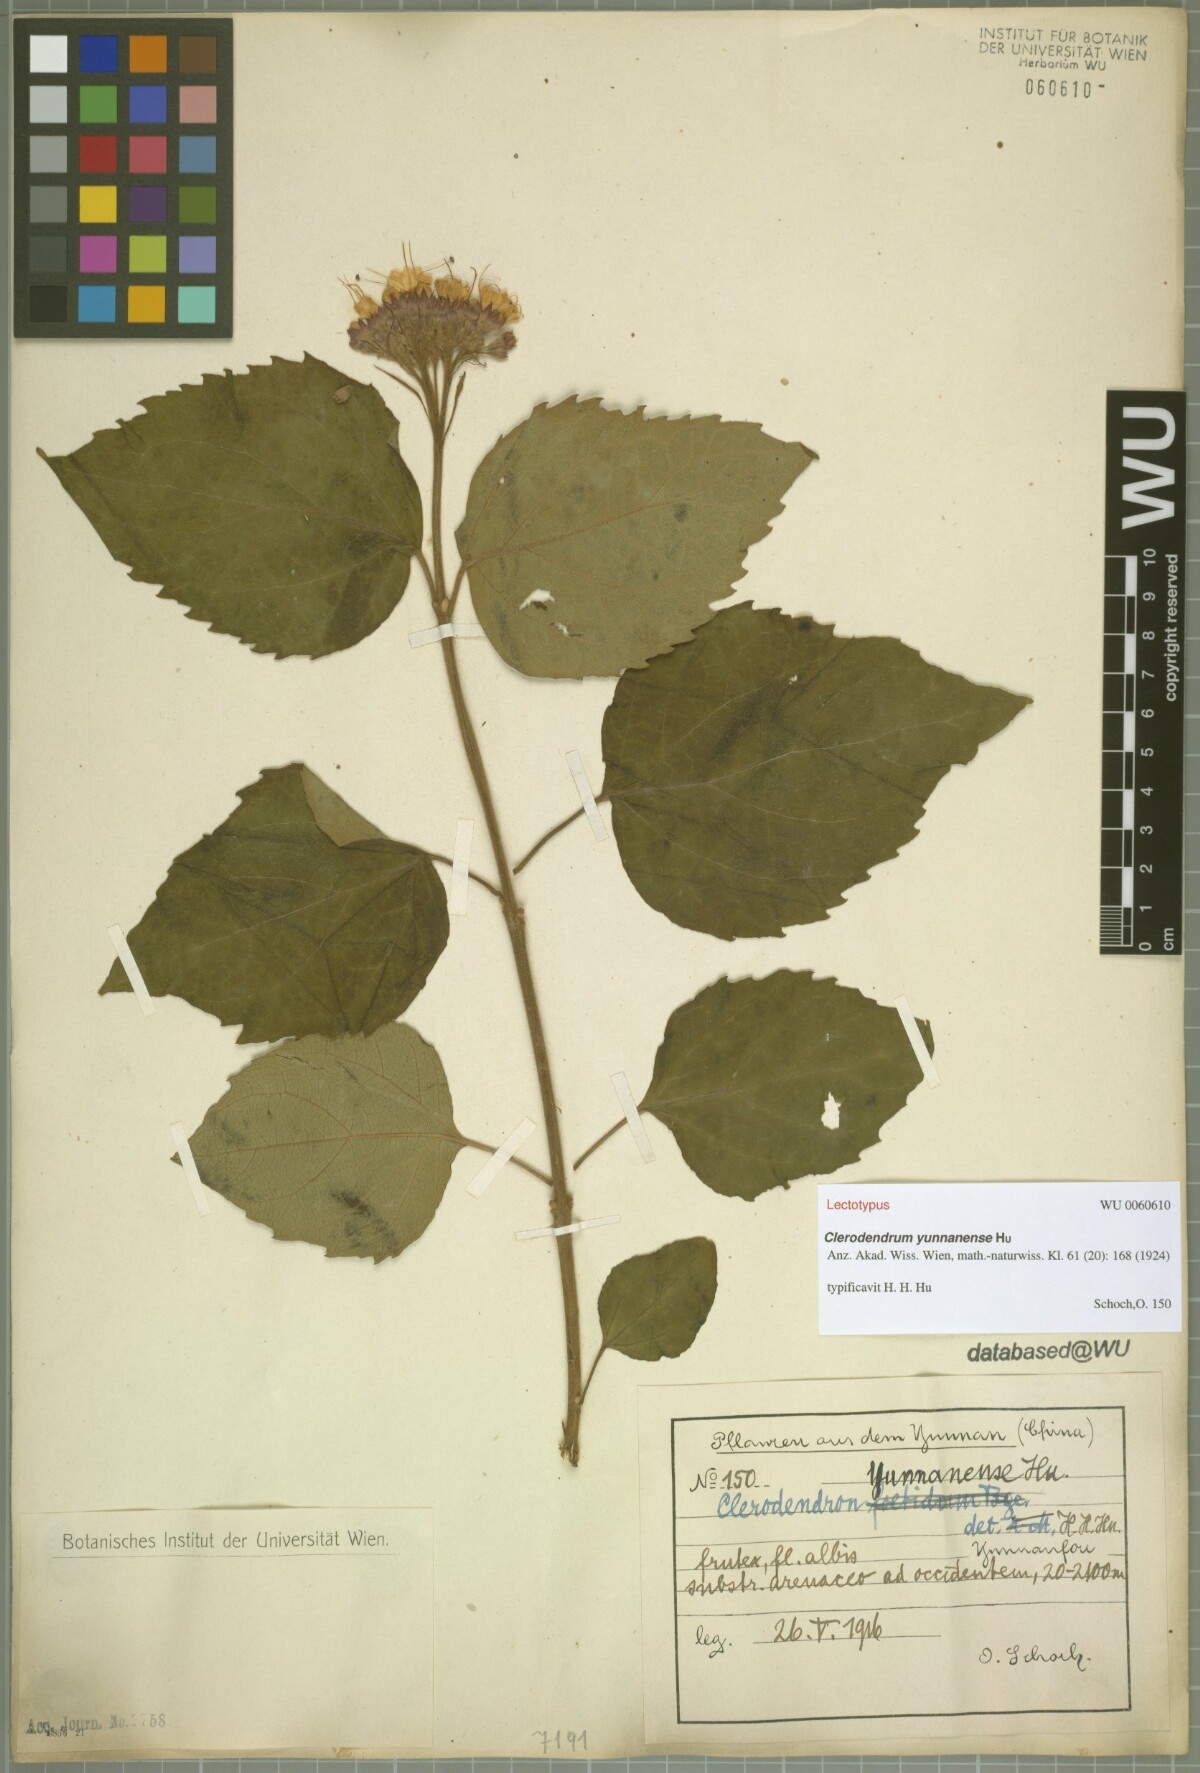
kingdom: Plantae
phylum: Tracheophyta
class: Magnoliopsida
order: Lamiales
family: Lamiaceae
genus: Clerodendrum
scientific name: Clerodendrum yunnanense
